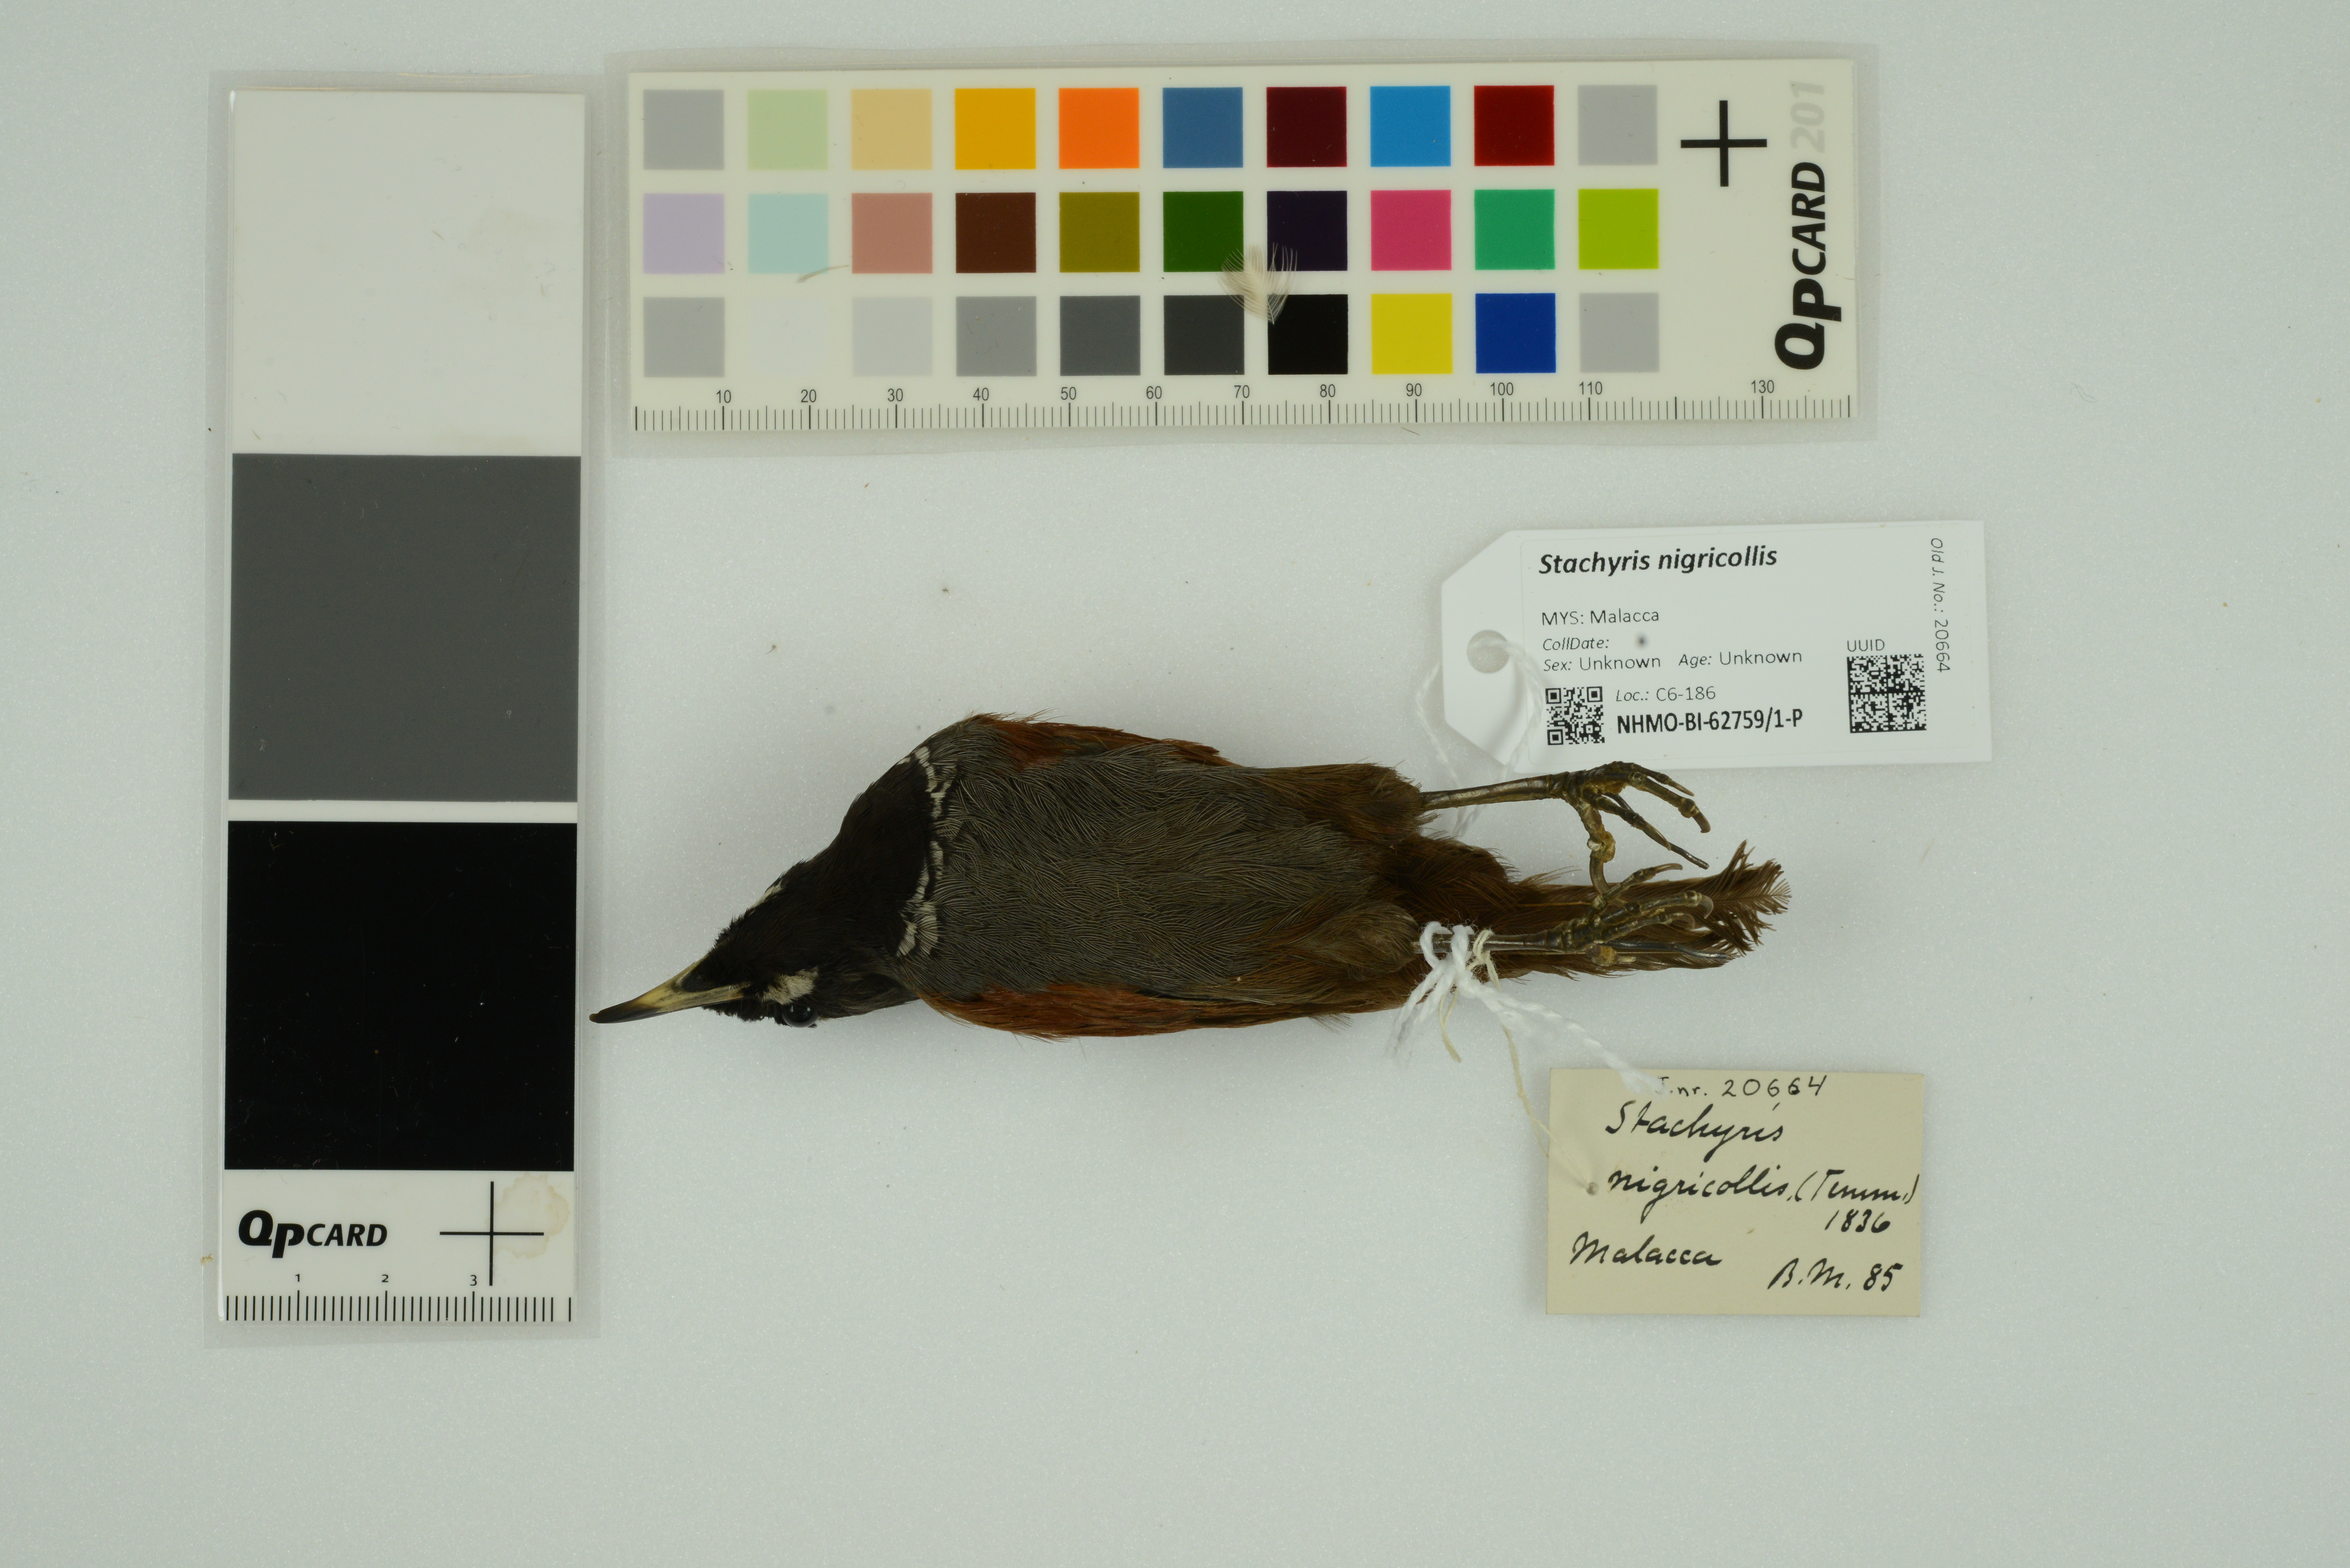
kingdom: Animalia
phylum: Chordata
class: Aves
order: Passeriformes
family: Timaliidae
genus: Stachyris
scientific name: Stachyris nigricollis
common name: Black-throated babbler
